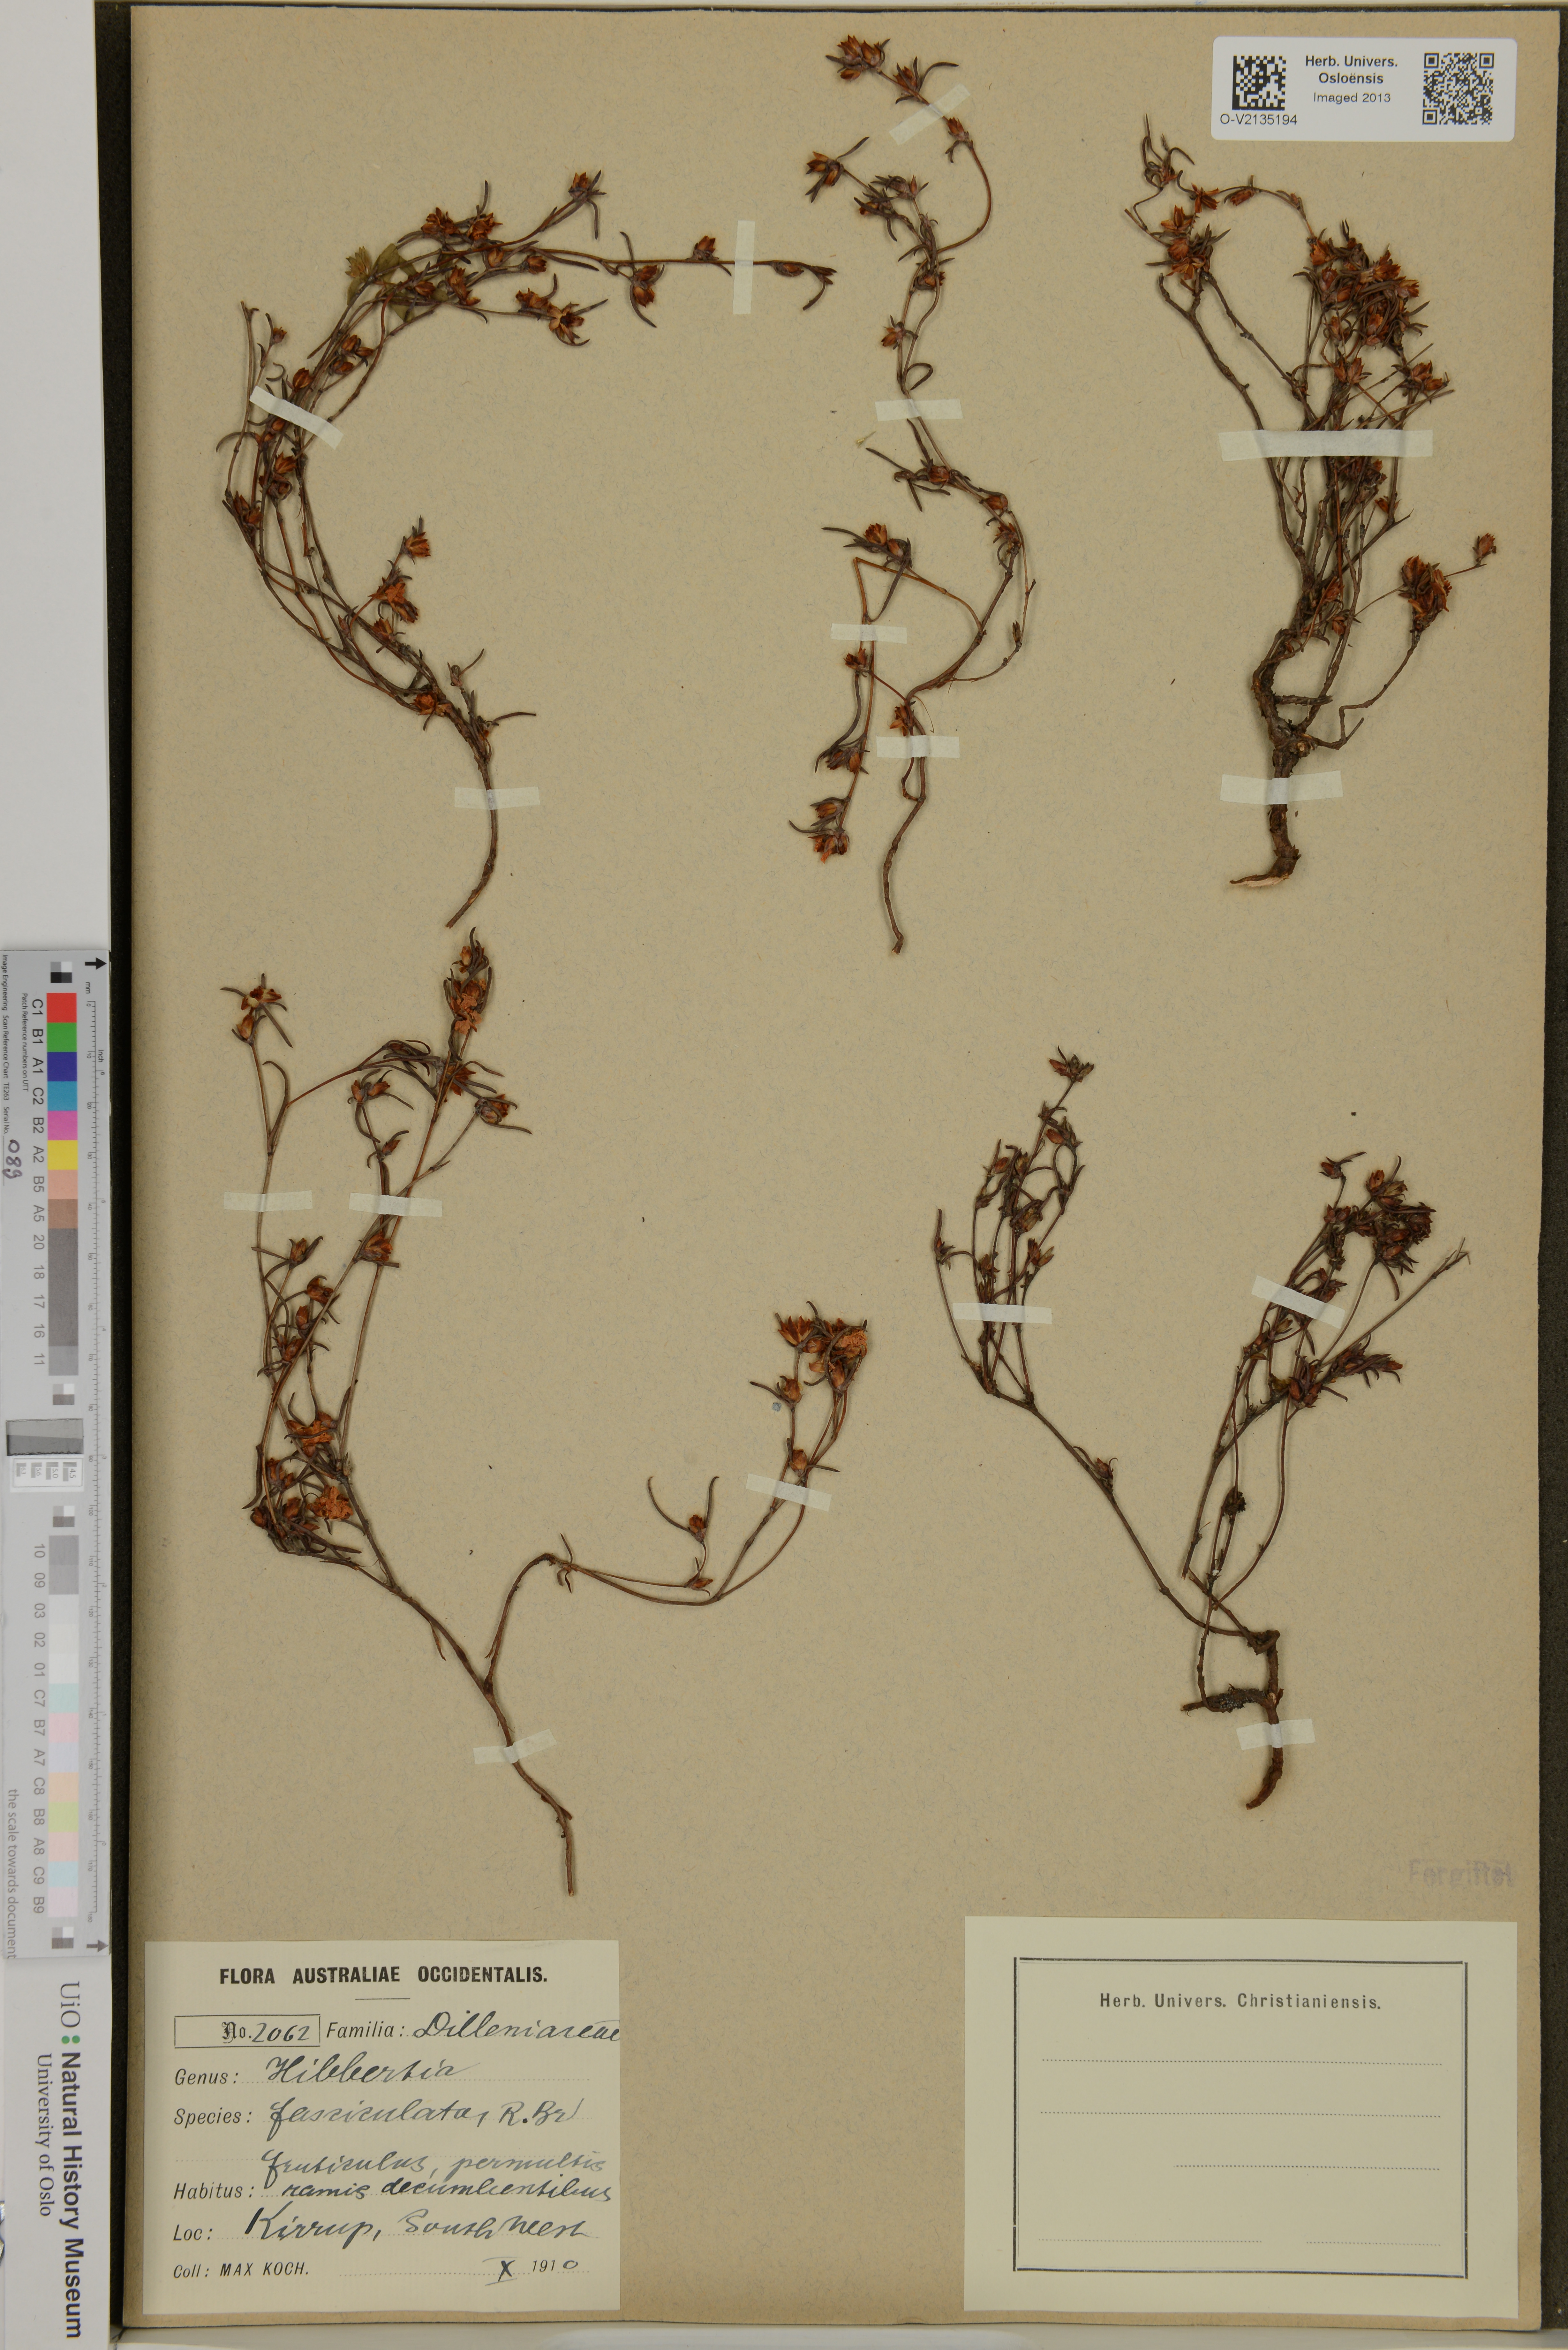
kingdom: Plantae
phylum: Tracheophyta
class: Magnoliopsida
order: Dilleniales
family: Dilleniaceae
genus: Hibbertia
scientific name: Hibbertia fasciculata
